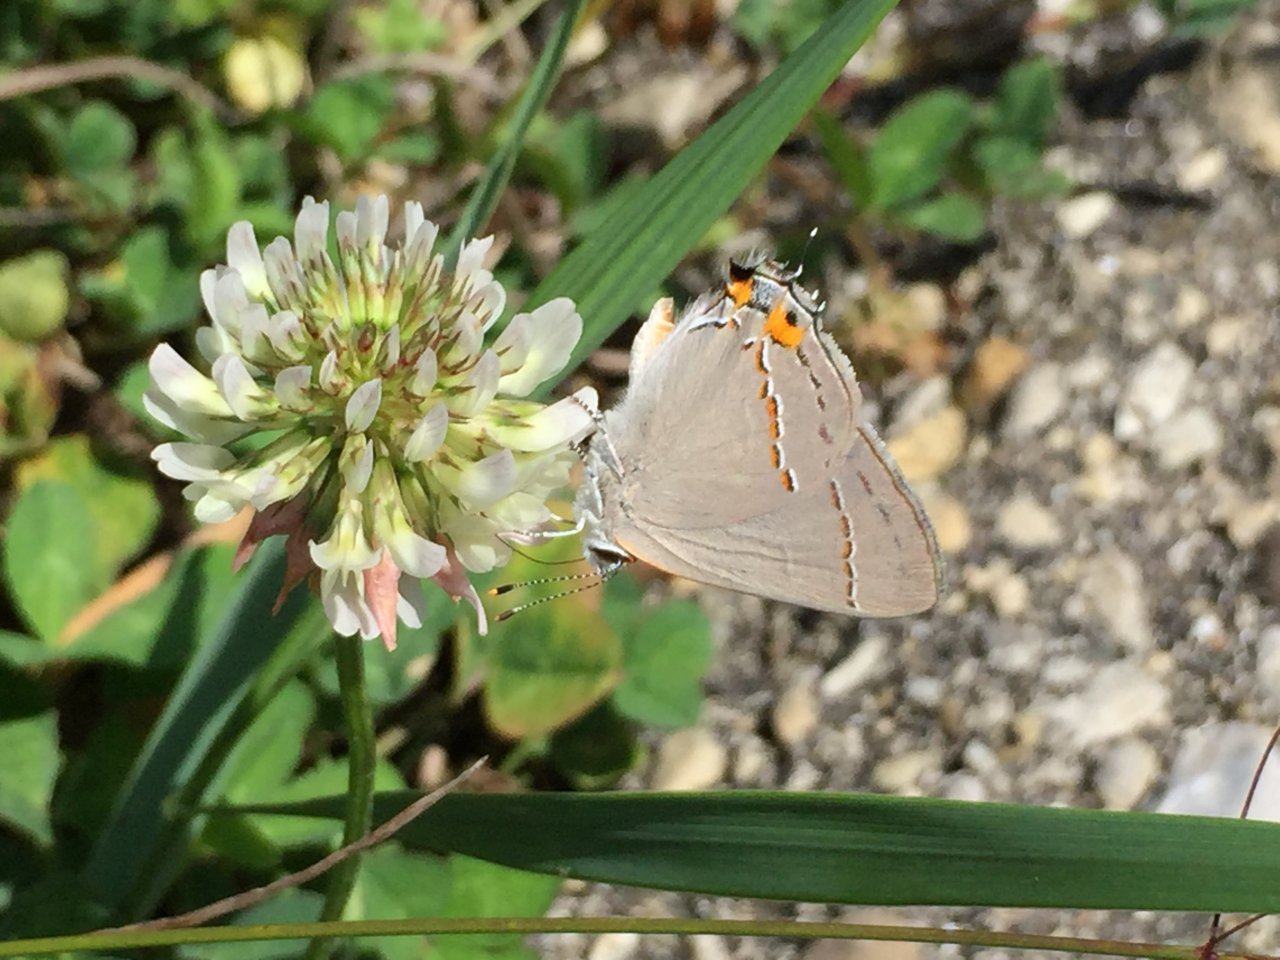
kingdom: Animalia
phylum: Arthropoda
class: Insecta
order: Lepidoptera
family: Lycaenidae
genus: Strymon
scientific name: Strymon melinus
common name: Gray Hairstreak
